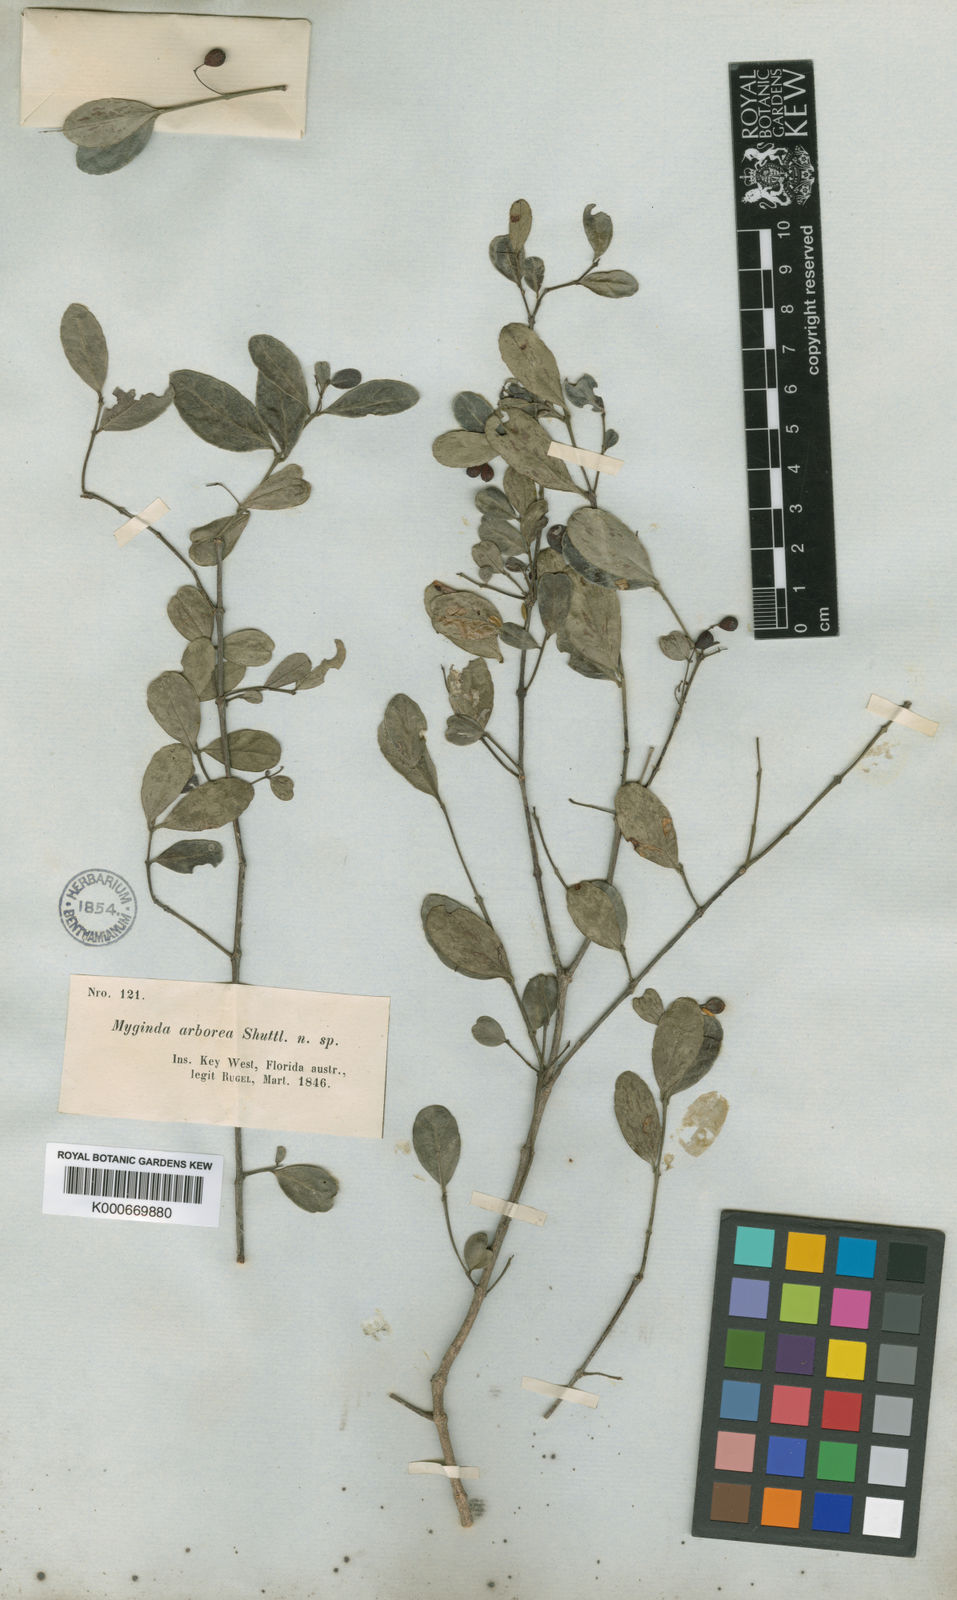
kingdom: Plantae
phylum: Tracheophyta
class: Magnoliopsida
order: Celastrales
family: Celastraceae
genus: Crossopetalum
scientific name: Crossopetalum
